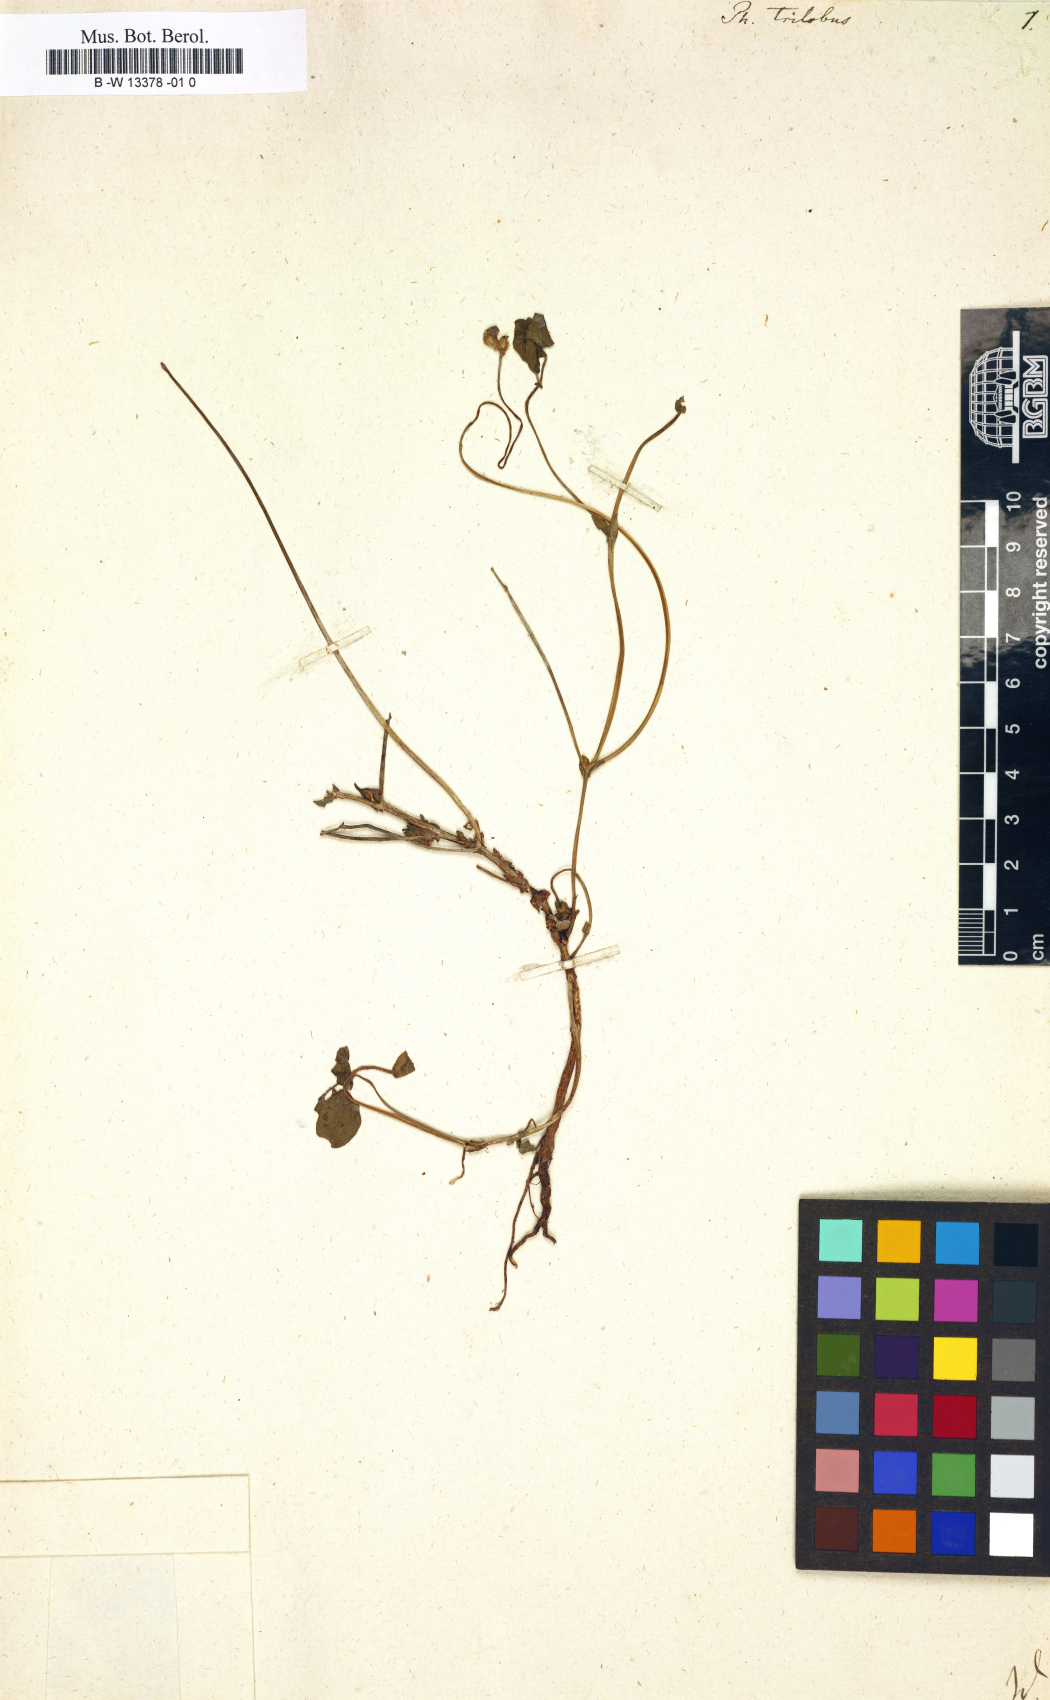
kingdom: Plantae
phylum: Tracheophyta
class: Magnoliopsida
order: Fabales
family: Fabaceae
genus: Pueraria
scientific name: Pueraria montana
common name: Kudzu
